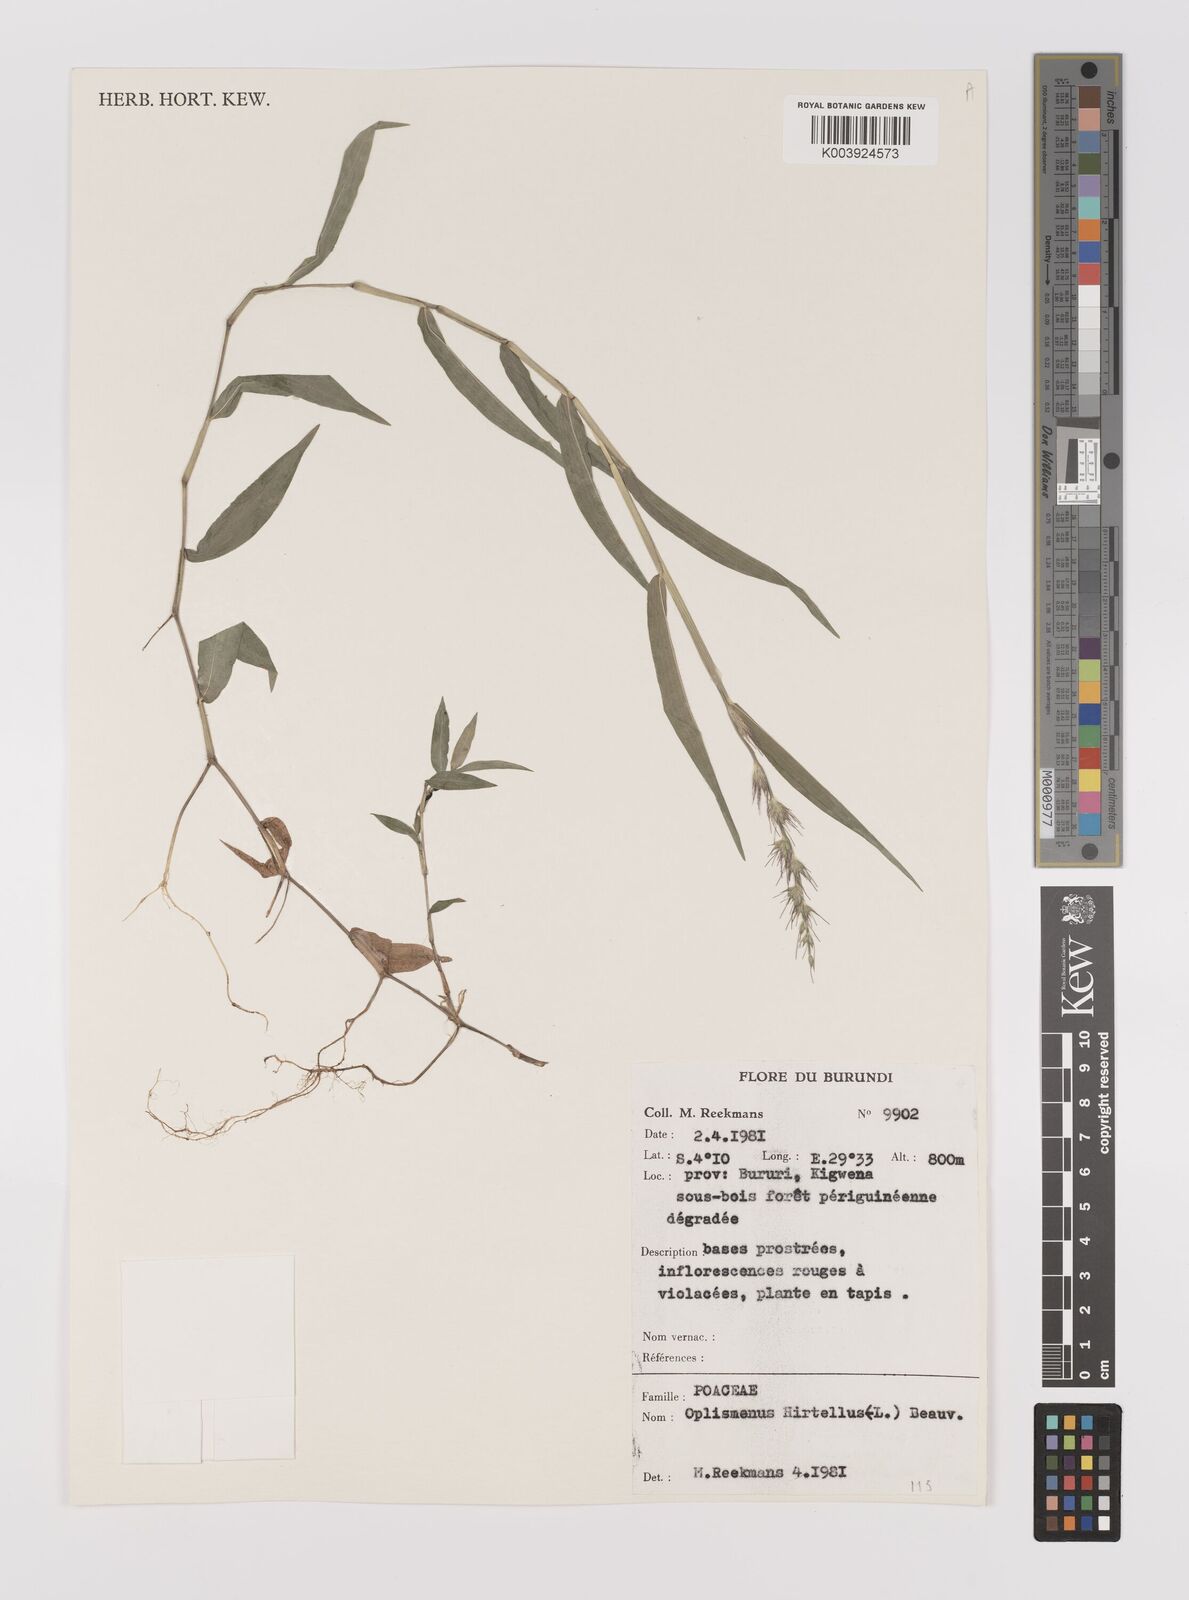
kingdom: Plantae
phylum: Tracheophyta
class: Liliopsida
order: Poales
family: Poaceae
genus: Oplismenus
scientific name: Oplismenus hirtellus
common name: Basketgrass
